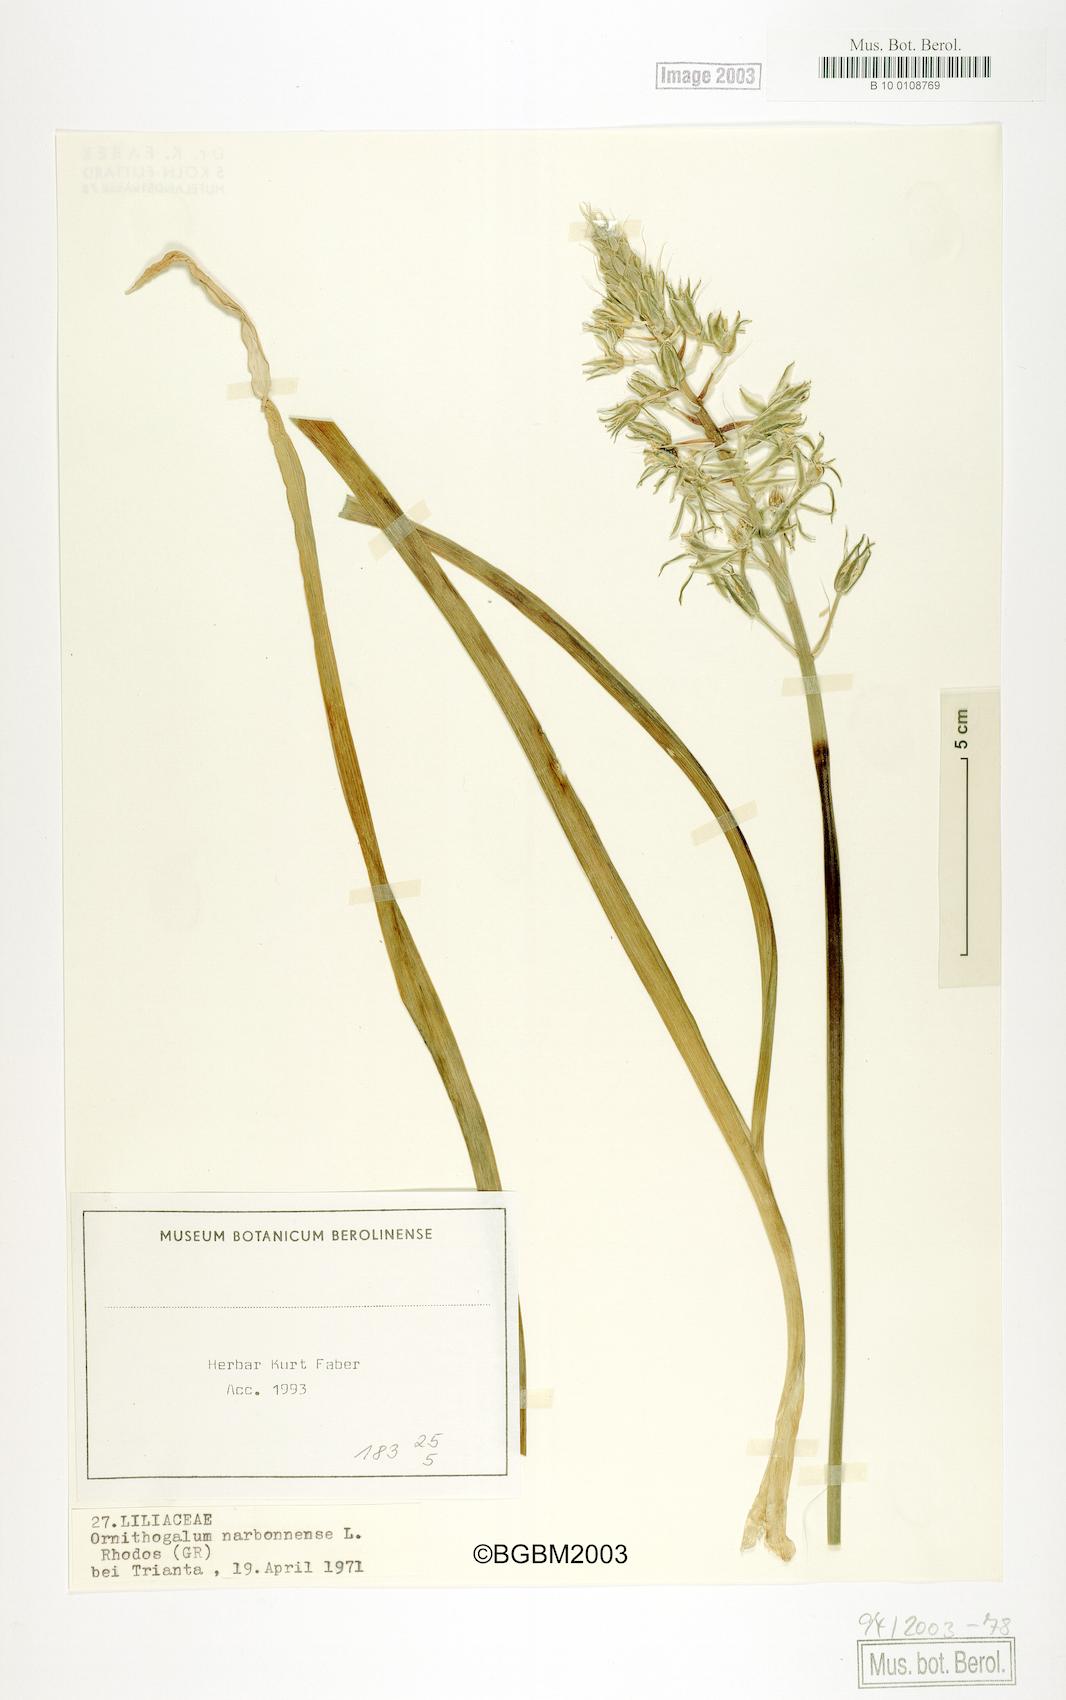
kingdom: Plantae
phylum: Tracheophyta
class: Liliopsida
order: Asparagales
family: Asparagaceae
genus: Ornithogalum
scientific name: Ornithogalum narbonense
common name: Bath-asparagus
